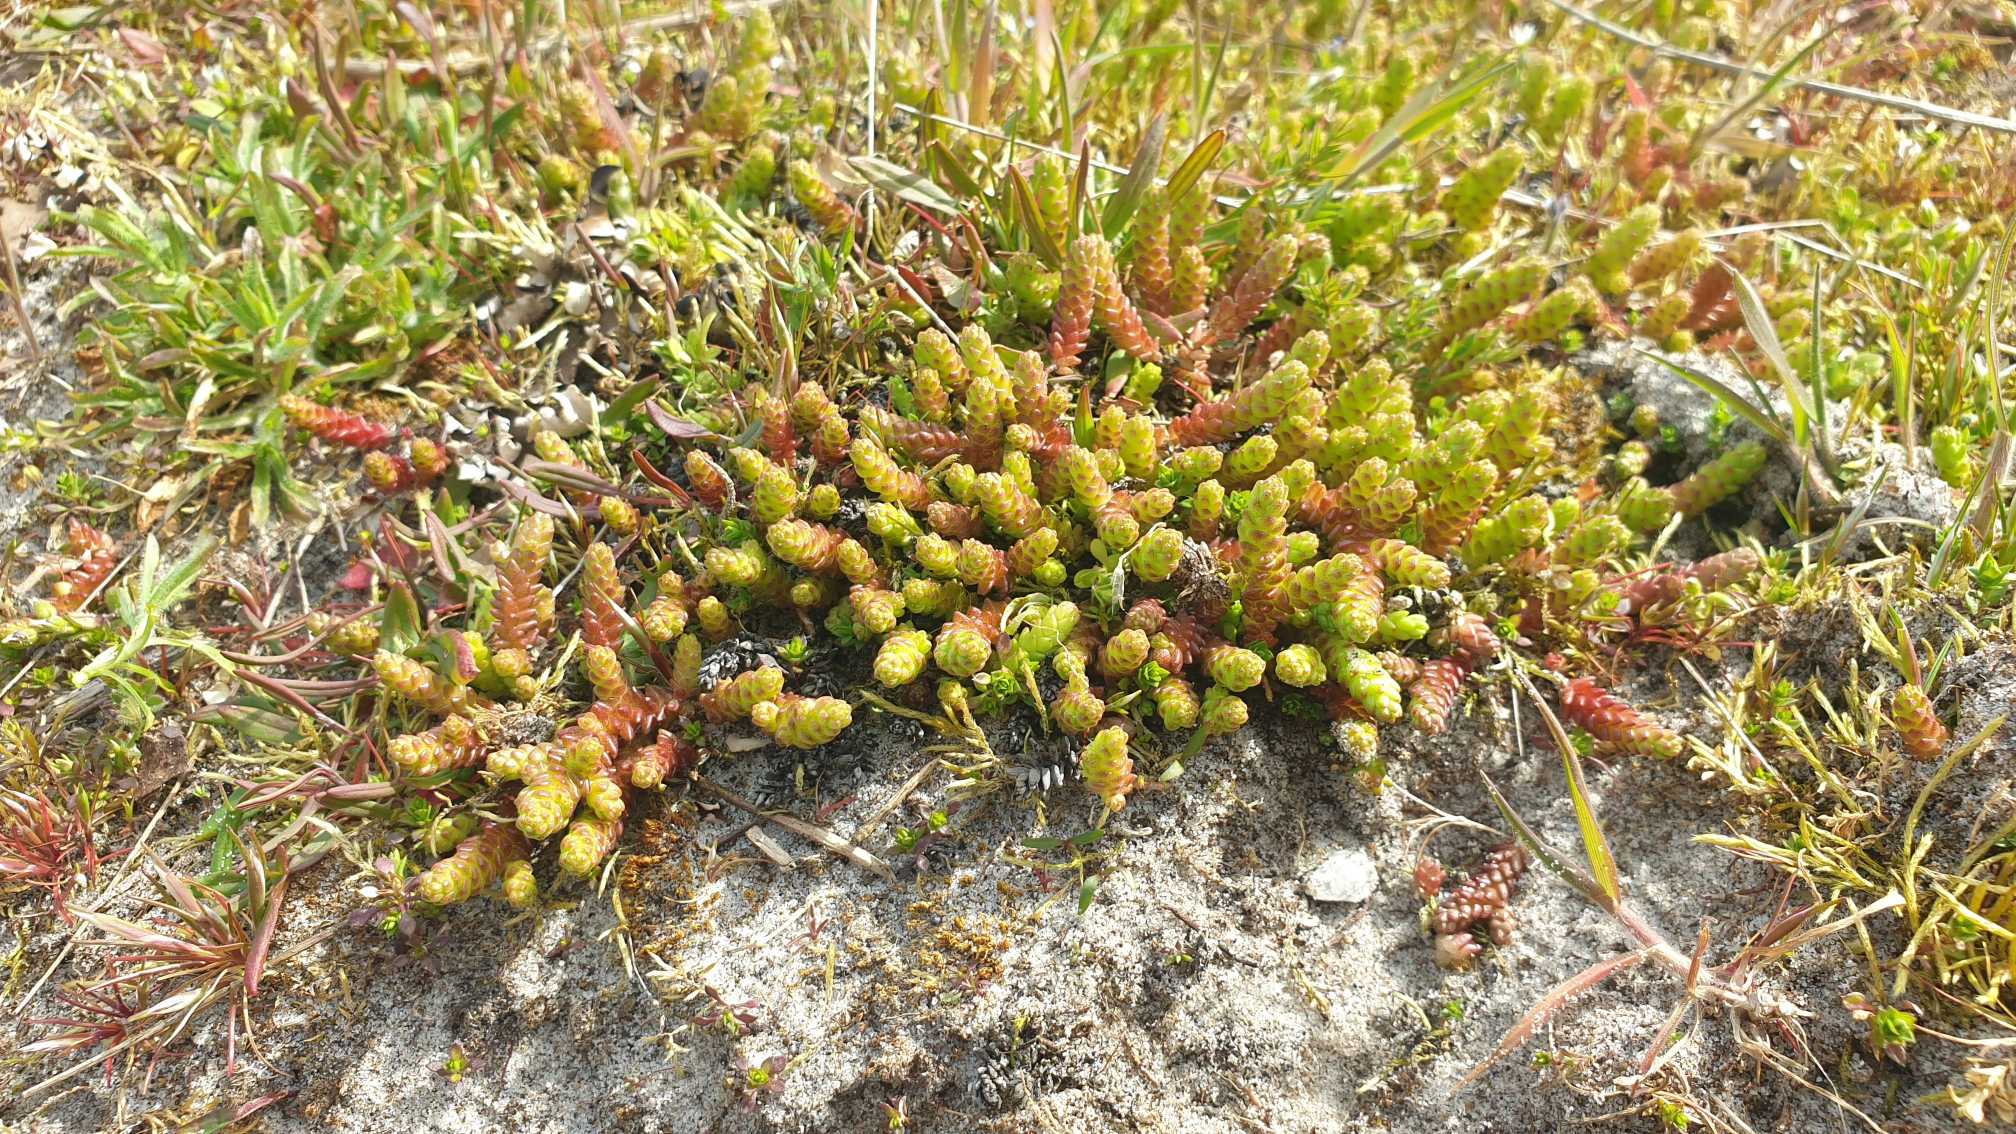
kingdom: Plantae
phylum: Tracheophyta
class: Magnoliopsida
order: Saxifragales
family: Crassulaceae
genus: Sedum
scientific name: Sedum acre
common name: Bidende stenurt
